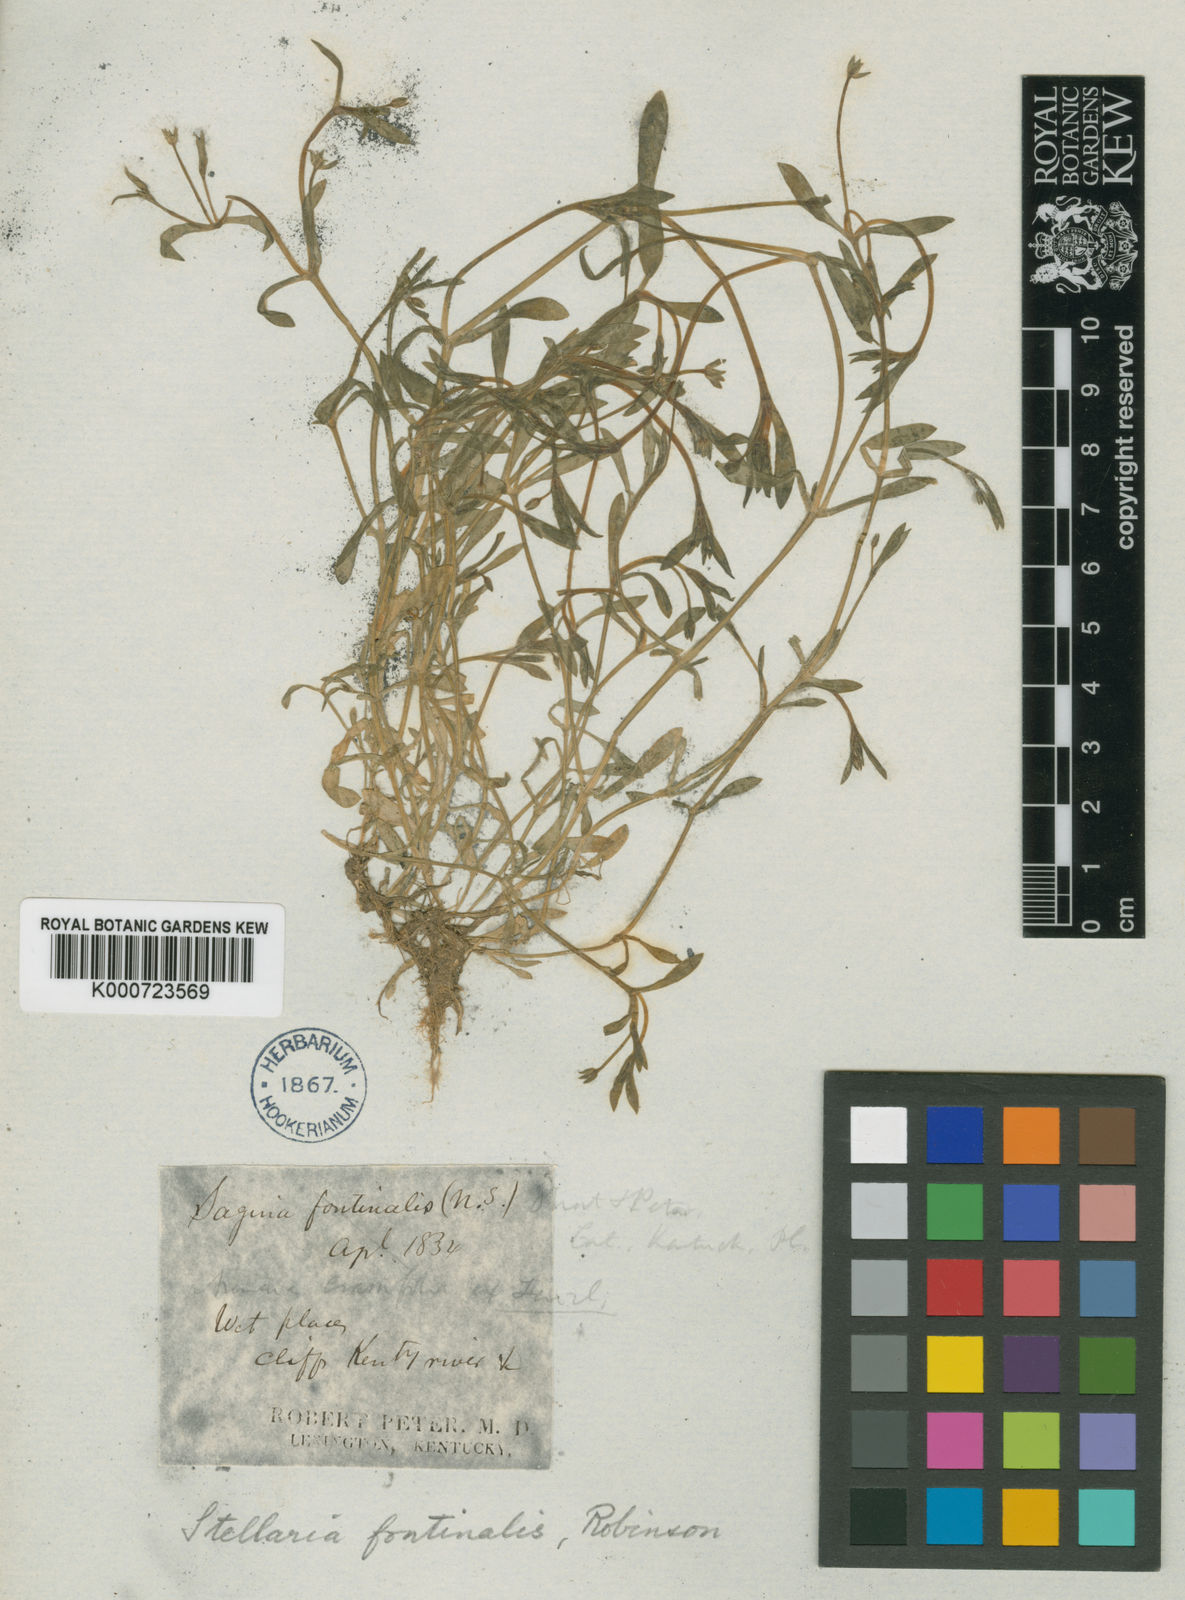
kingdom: Plantae
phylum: Tracheophyta
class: Magnoliopsida
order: Caryophyllales
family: Caryophyllaceae
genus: Sabulina
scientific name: Sabulina fontinalis
